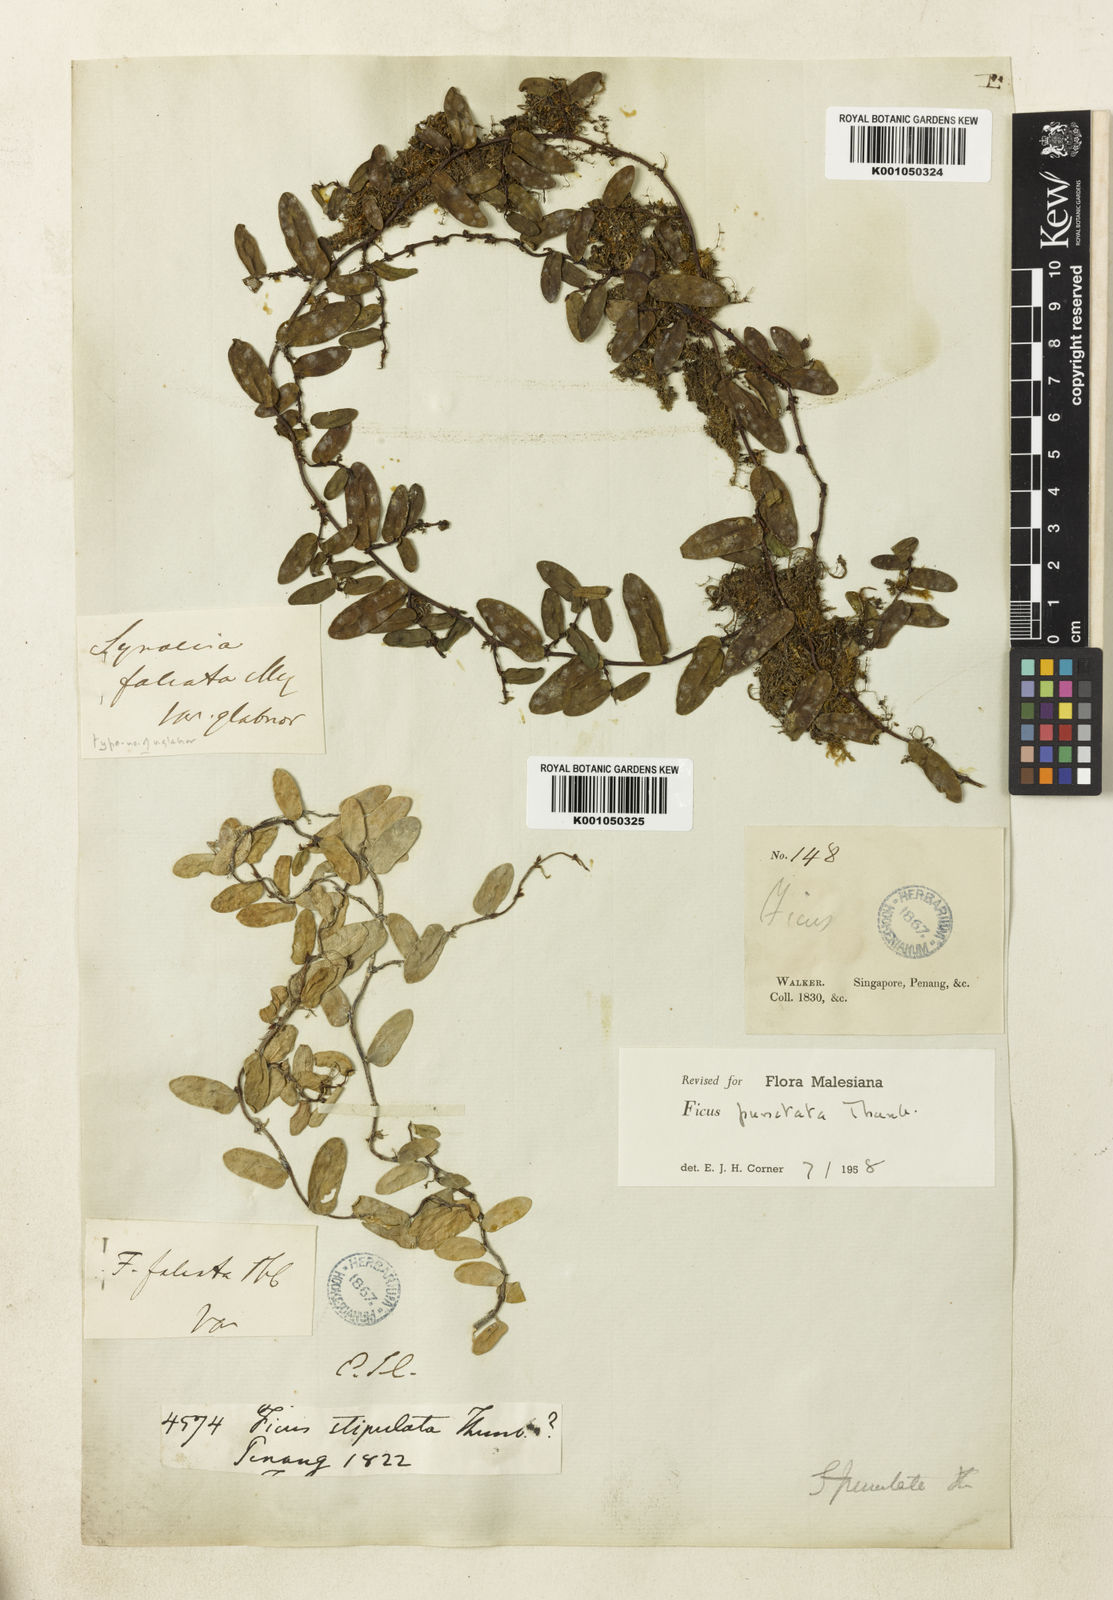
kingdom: Plantae
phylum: Tracheophyta
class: Magnoliopsida
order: Rosales
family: Moraceae
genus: Ficus
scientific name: Ficus punctata
